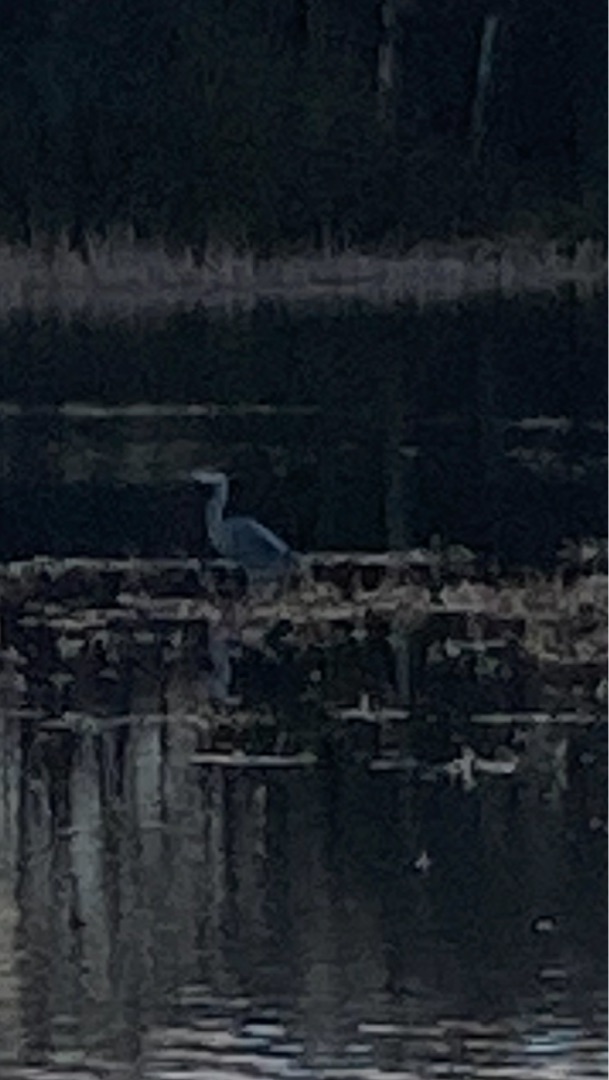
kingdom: Animalia
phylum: Chordata
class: Aves
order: Pelecaniformes
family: Ardeidae
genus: Ardea
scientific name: Ardea cinerea
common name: Fiskehejre
